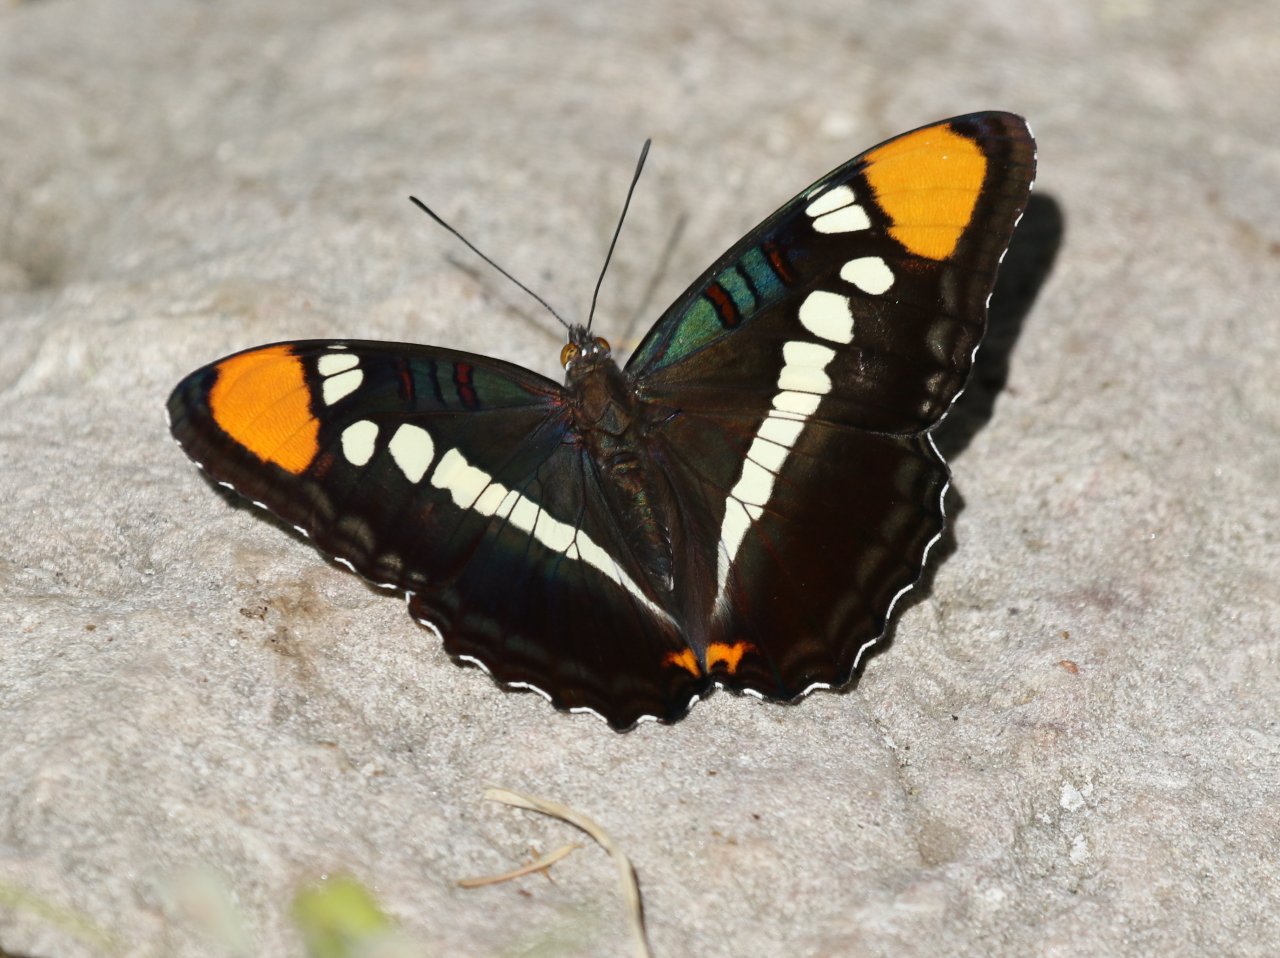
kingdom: Animalia
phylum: Arthropoda
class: Insecta
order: Lepidoptera
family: Nymphalidae
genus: Limenitis
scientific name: Limenitis bredowii
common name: Arizona Sister
